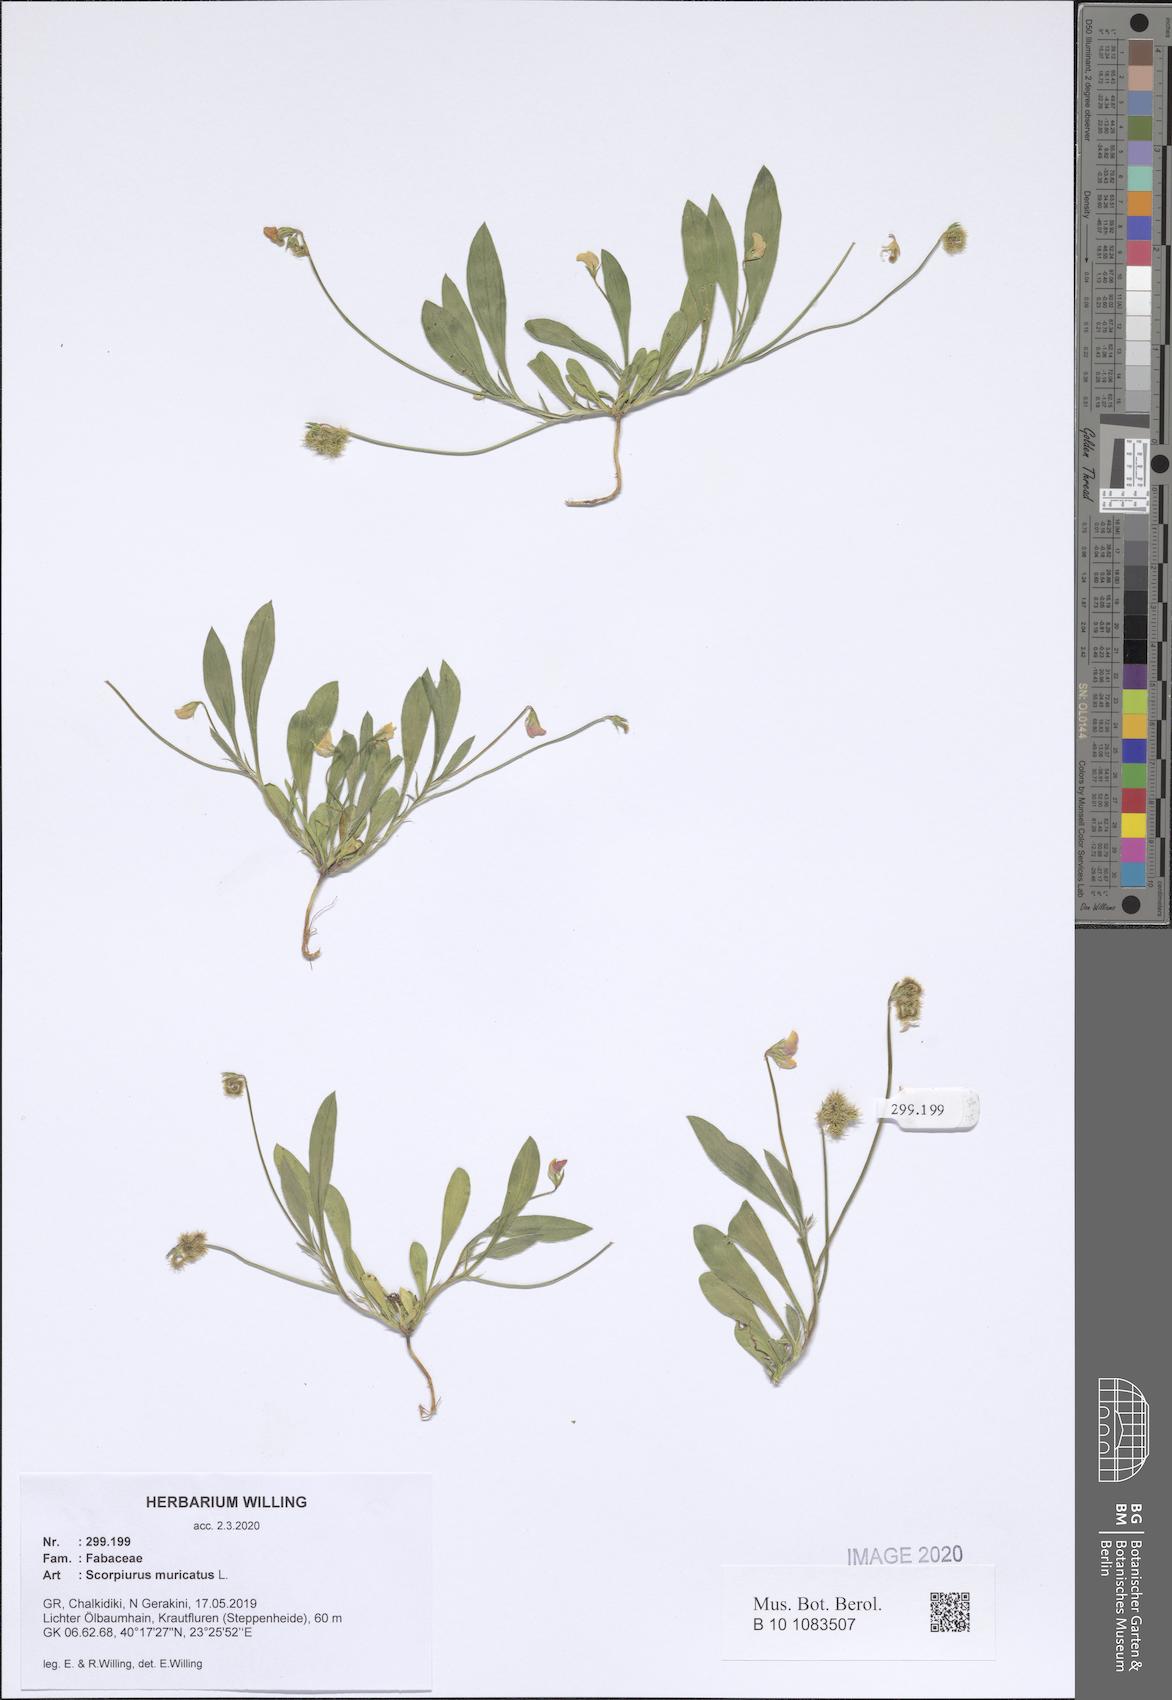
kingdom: Plantae
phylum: Tracheophyta
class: Magnoliopsida
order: Fabales
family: Fabaceae
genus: Scorpiurus
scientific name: Scorpiurus muricatus
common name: Caterpillar-plant
